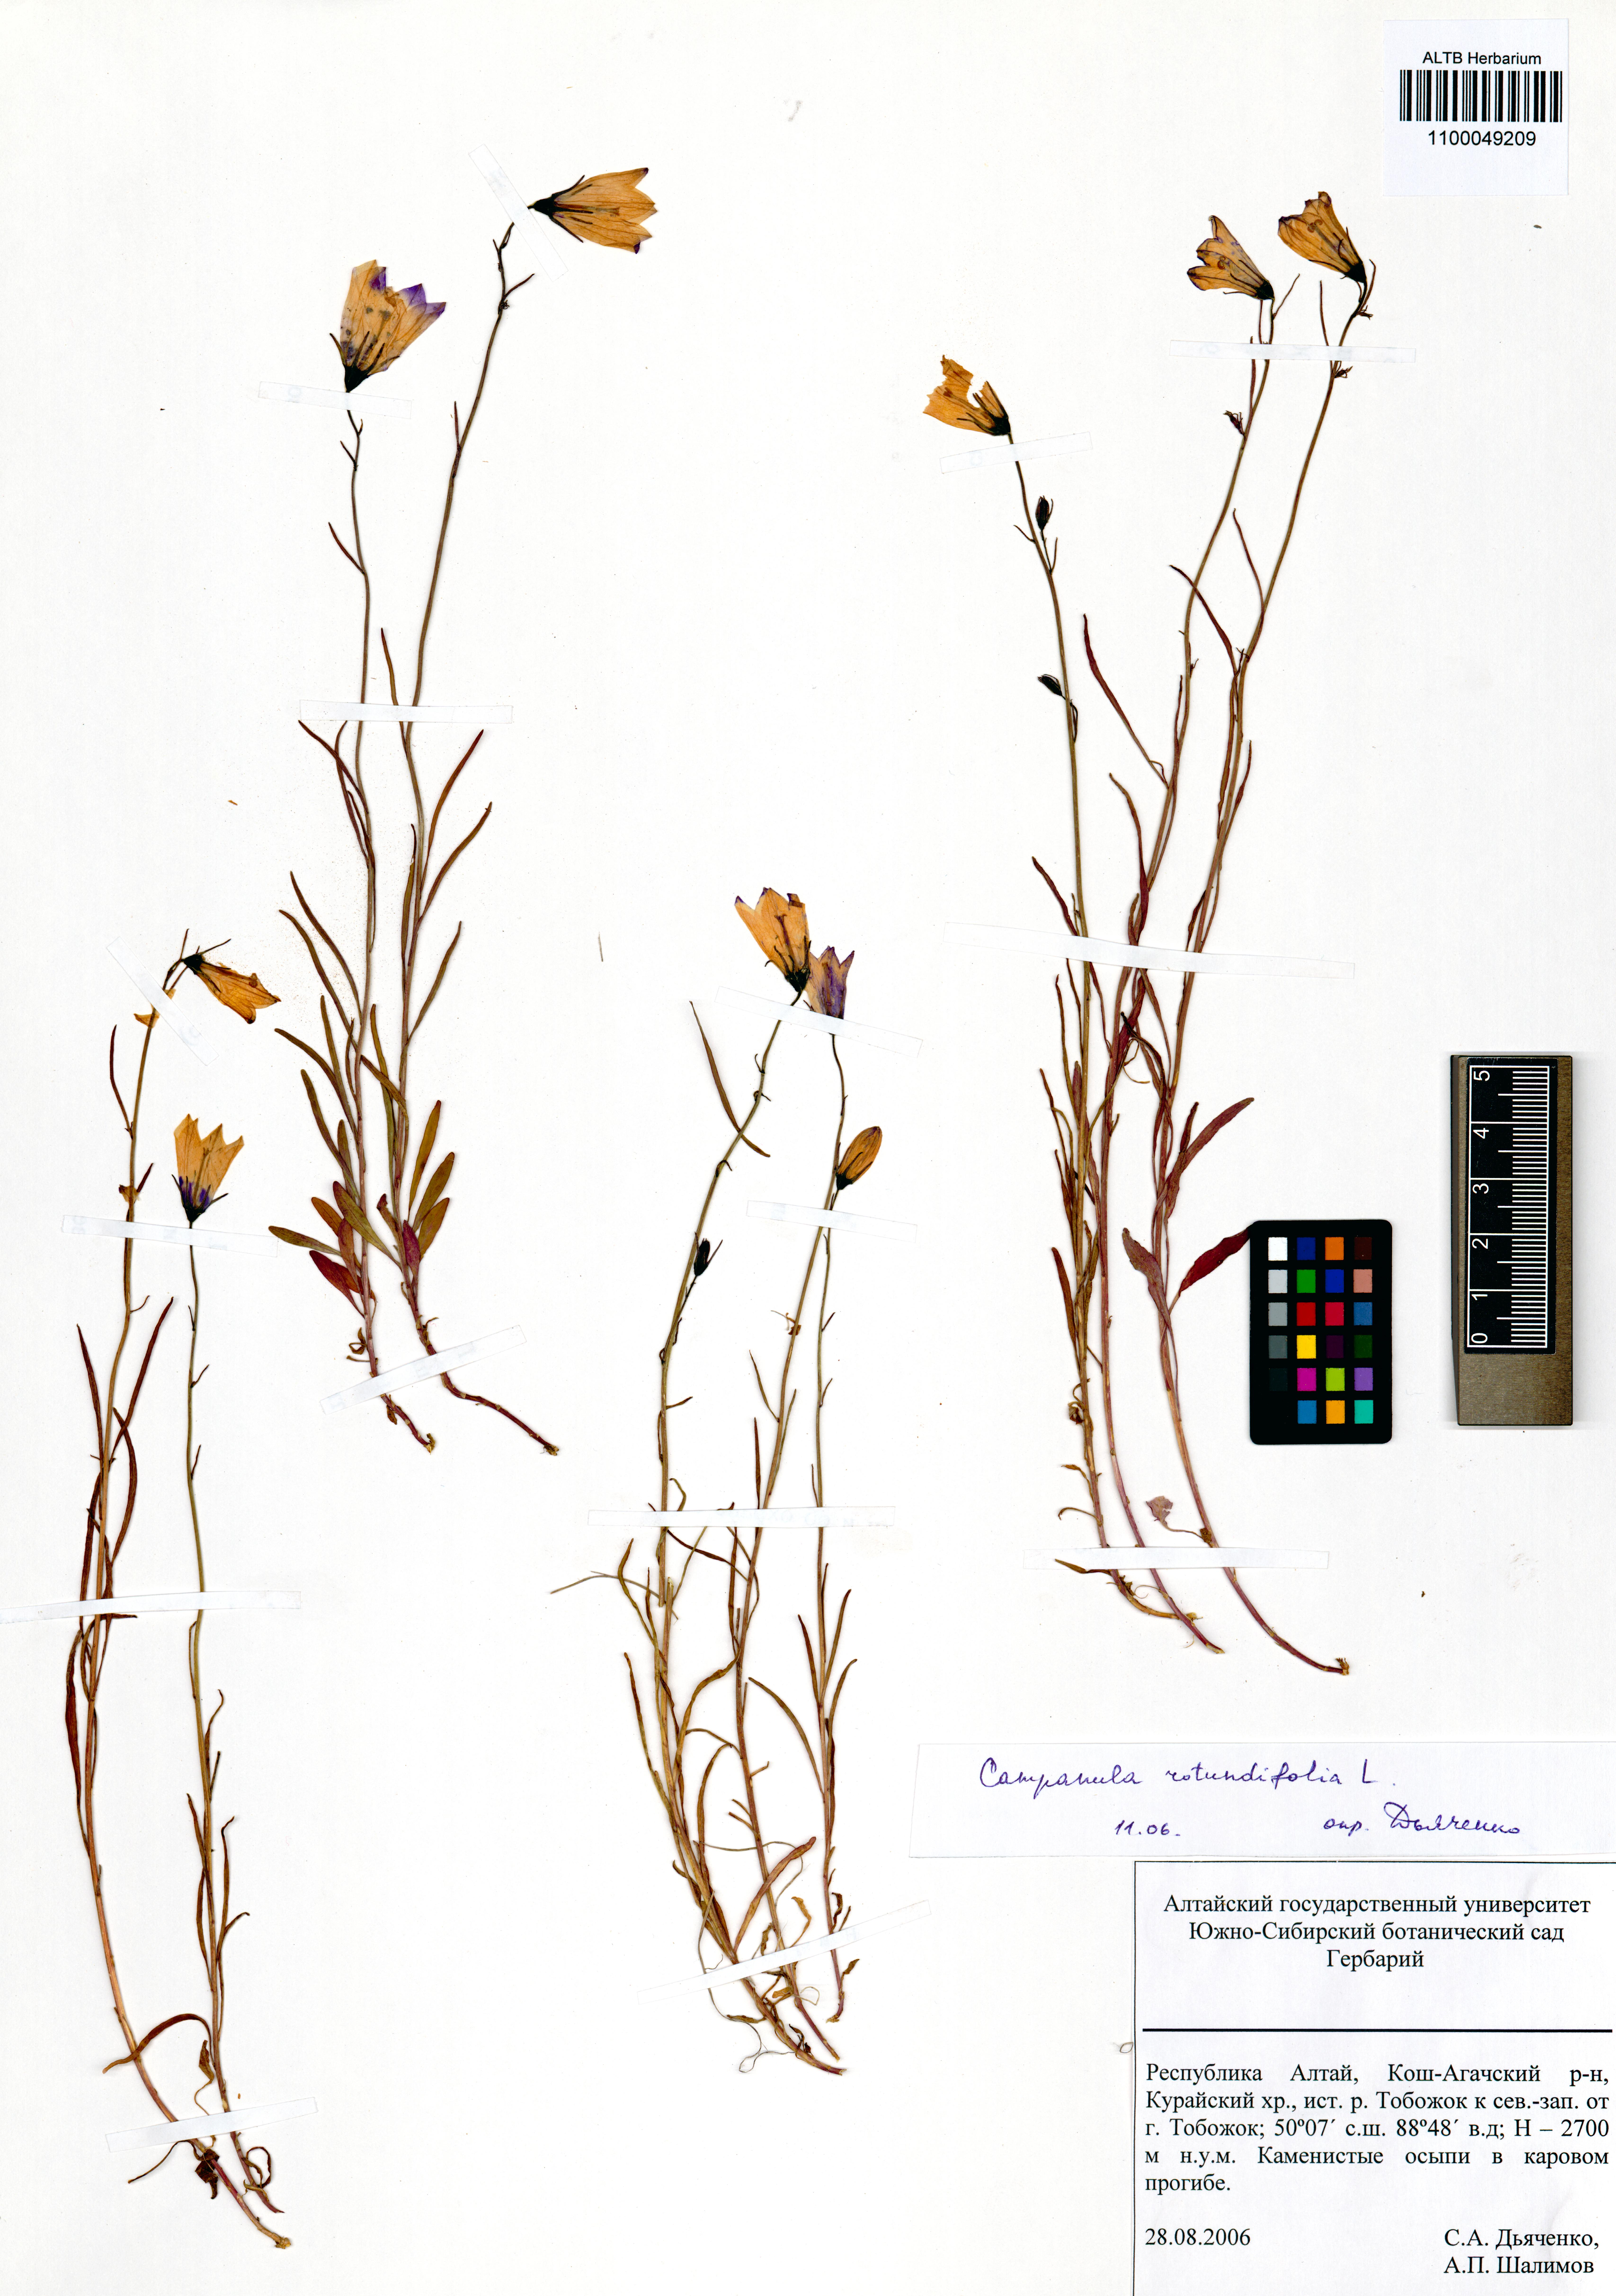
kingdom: Plantae
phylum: Tracheophyta
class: Magnoliopsida
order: Asterales
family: Campanulaceae
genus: Campanula
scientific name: Campanula rotundifolia
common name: Harebell
